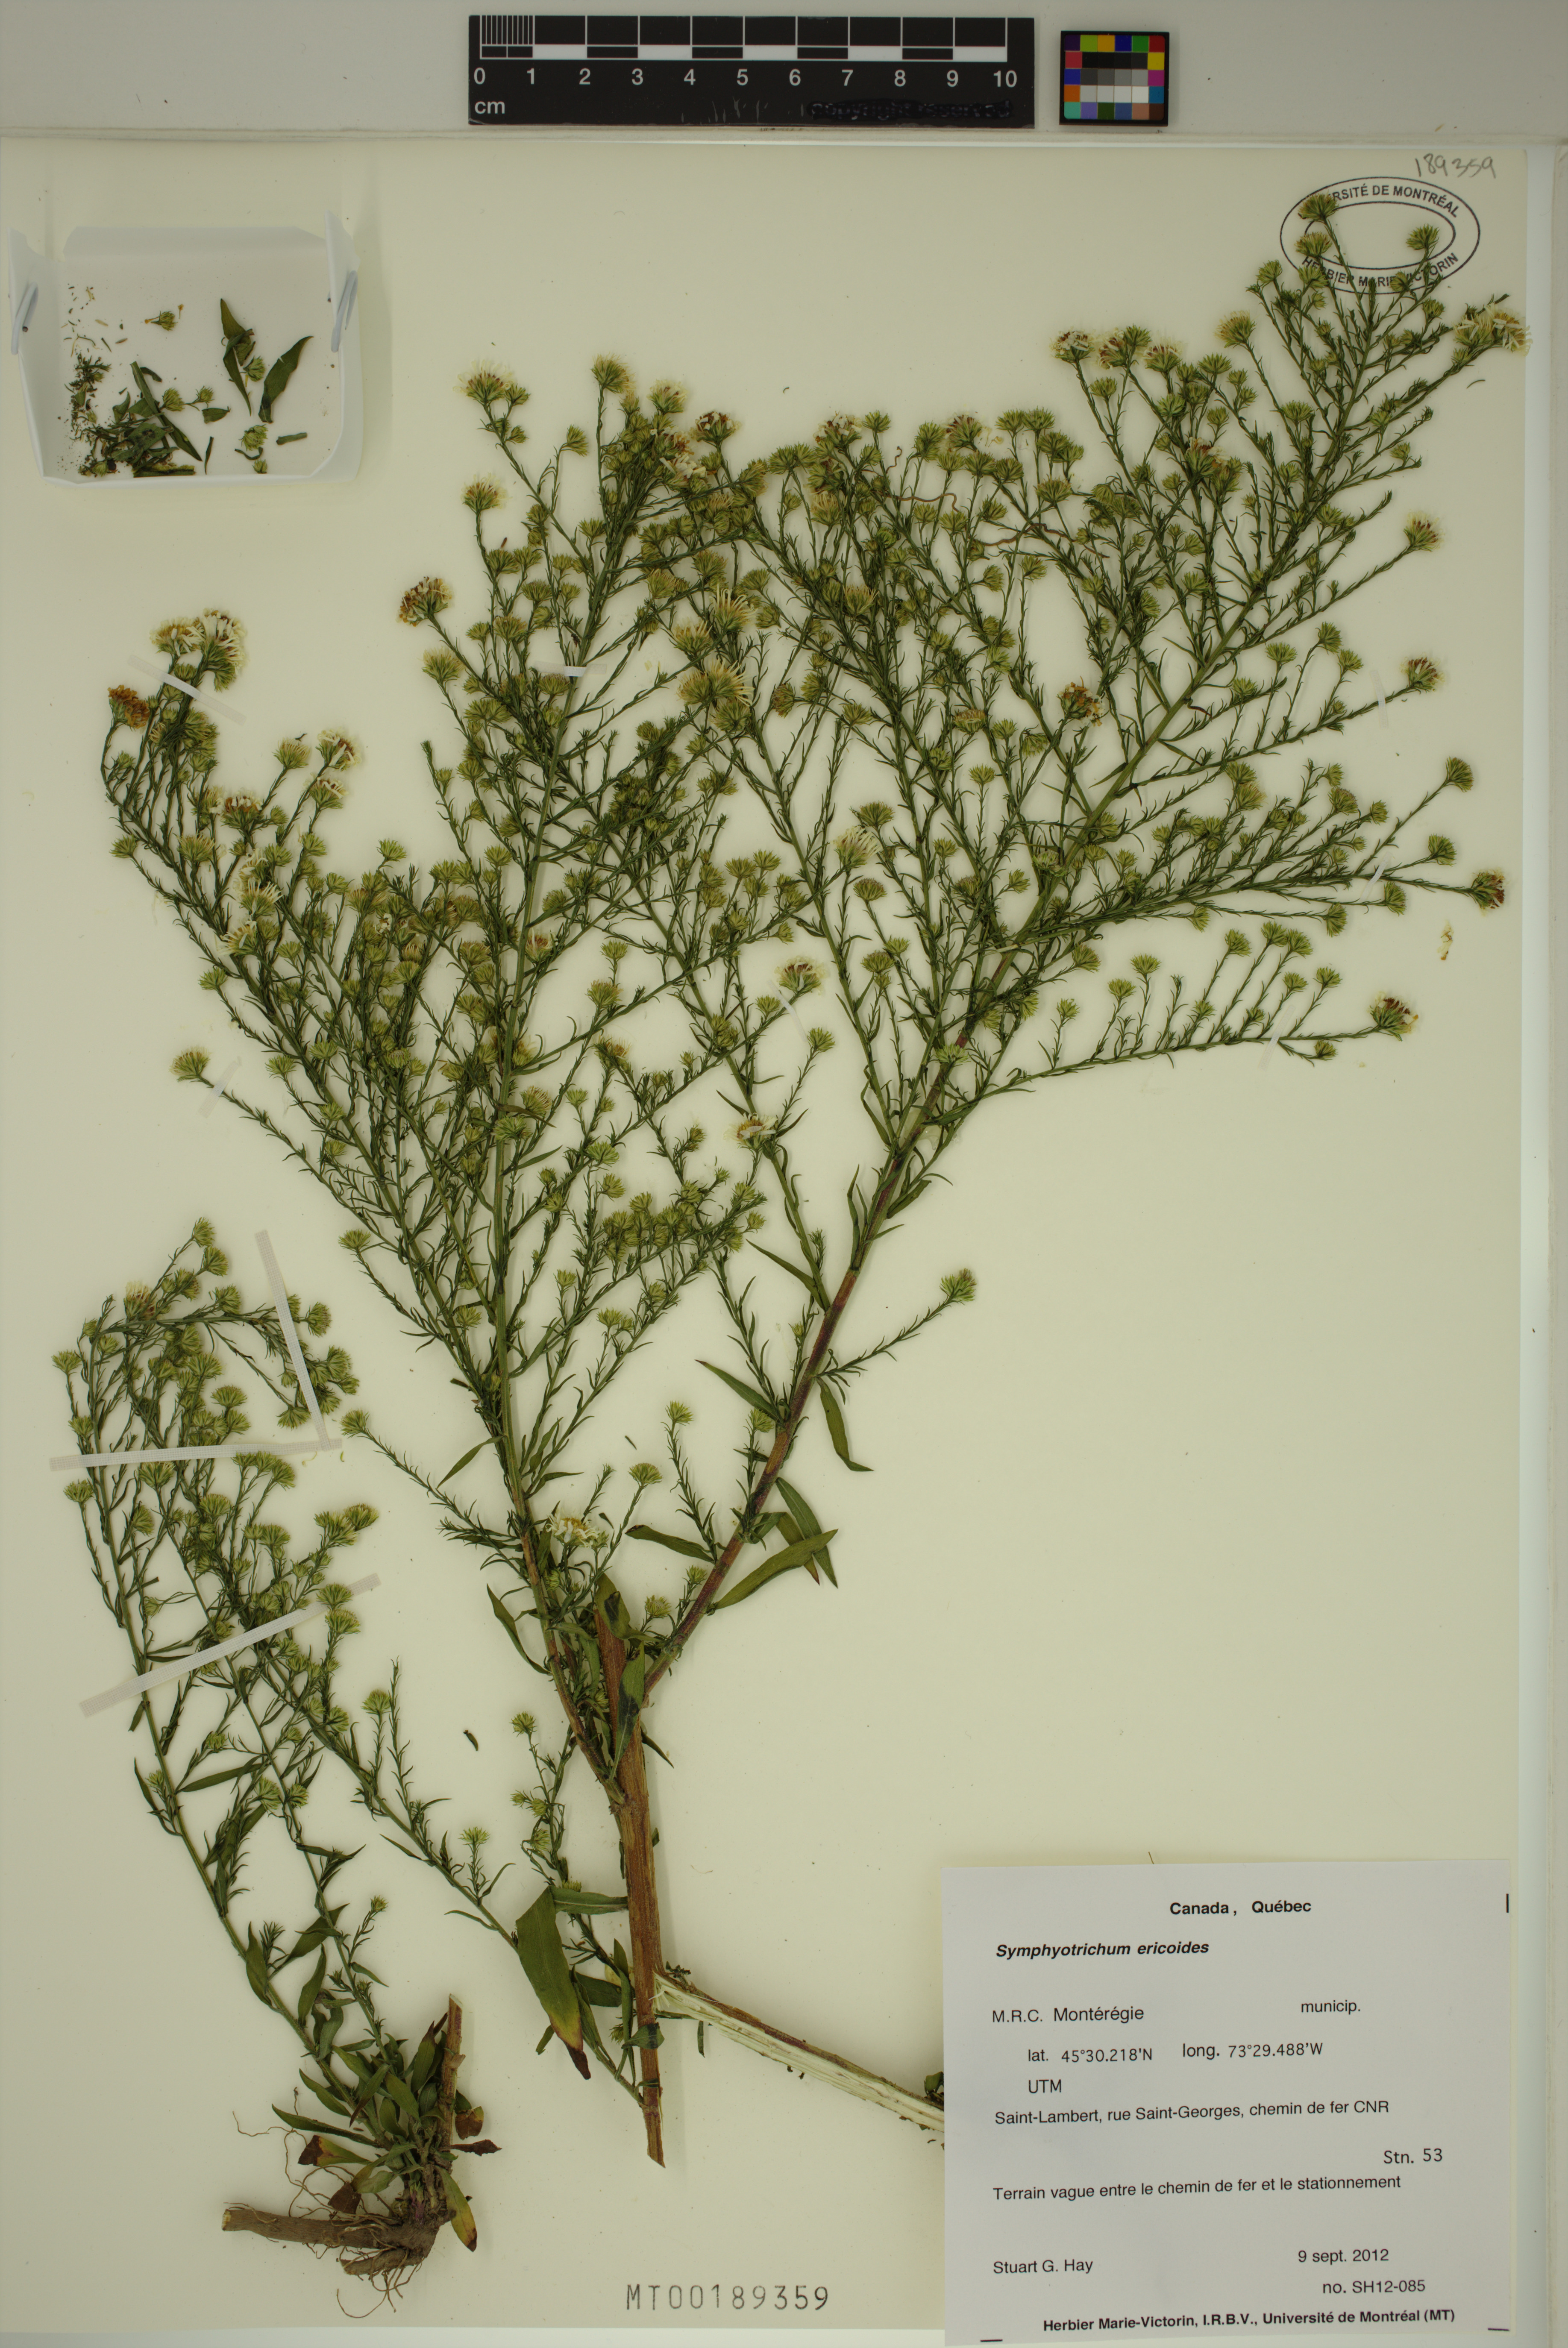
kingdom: Plantae
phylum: Tracheophyta
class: Magnoliopsida
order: Asterales
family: Asteraceae
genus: Symphyotrichum
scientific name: Symphyotrichum pilosum
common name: Awl aster
